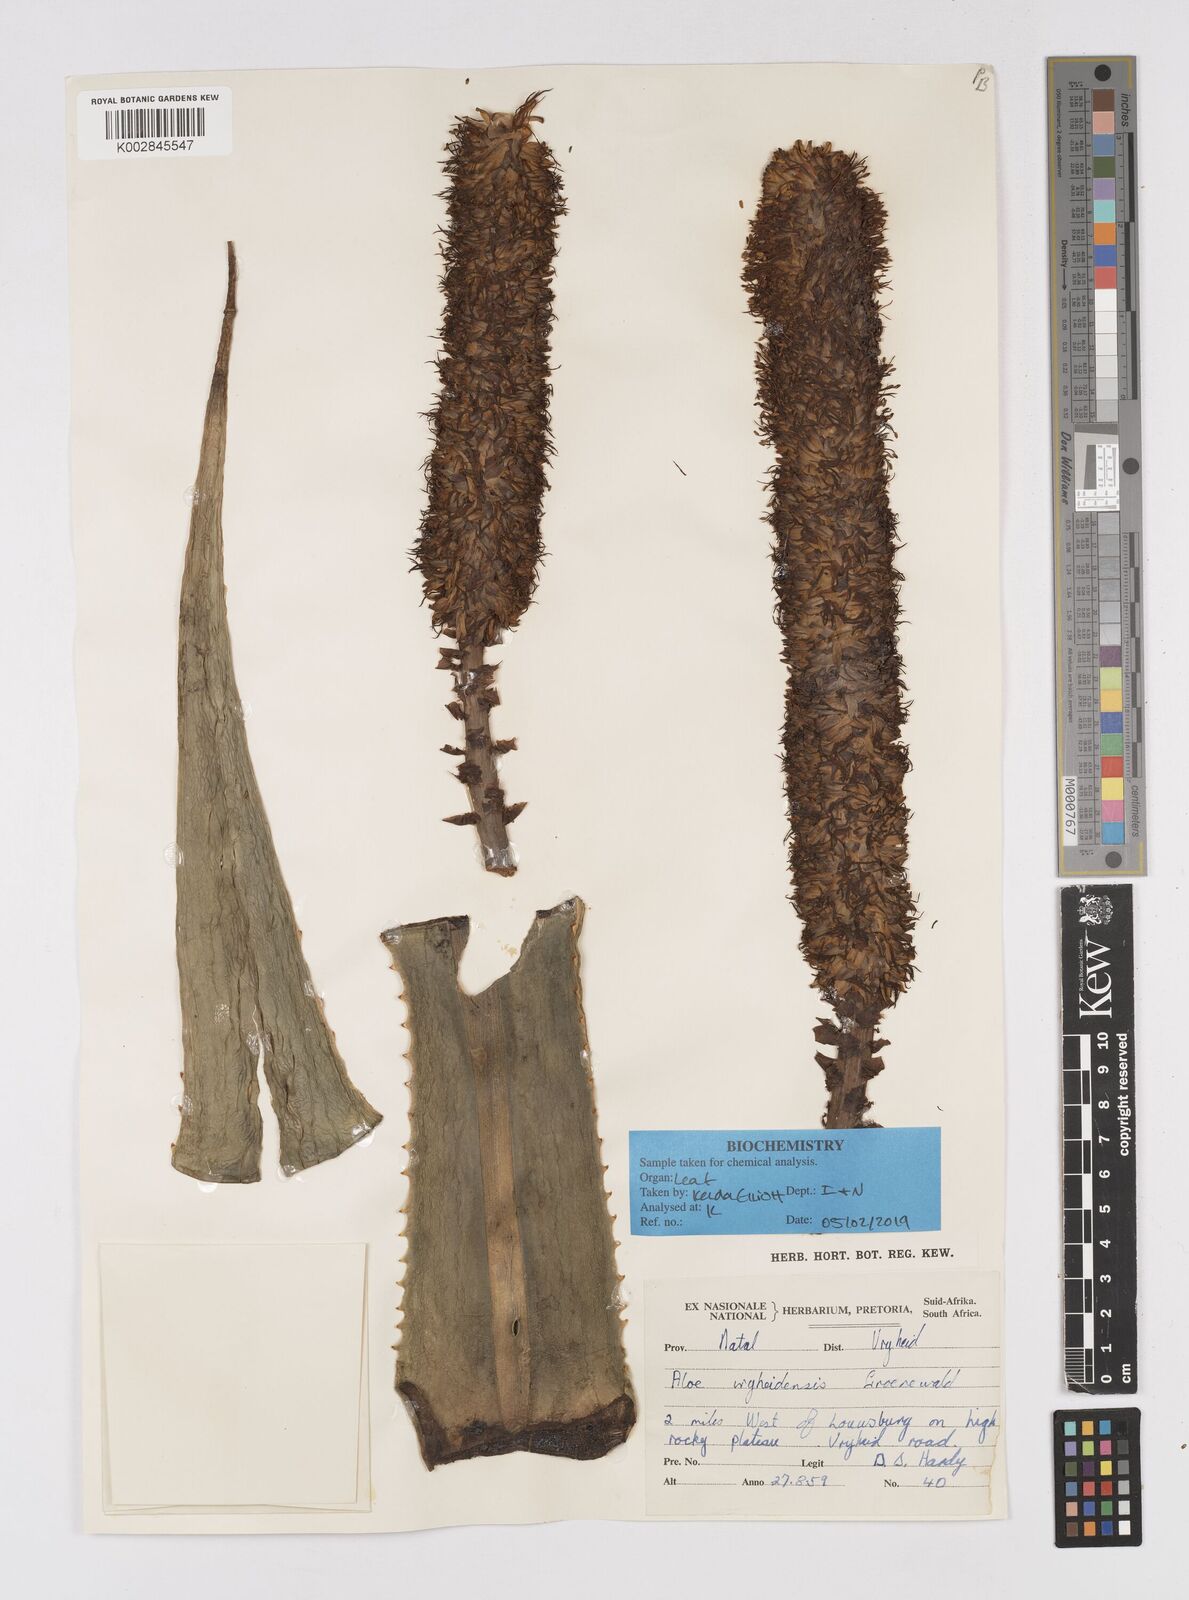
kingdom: Plantae
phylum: Tracheophyta
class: Liliopsida
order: Asparagales
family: Asphodelaceae
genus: Aloe
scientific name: Aloe vryheidensis
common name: Vryheid aloe
